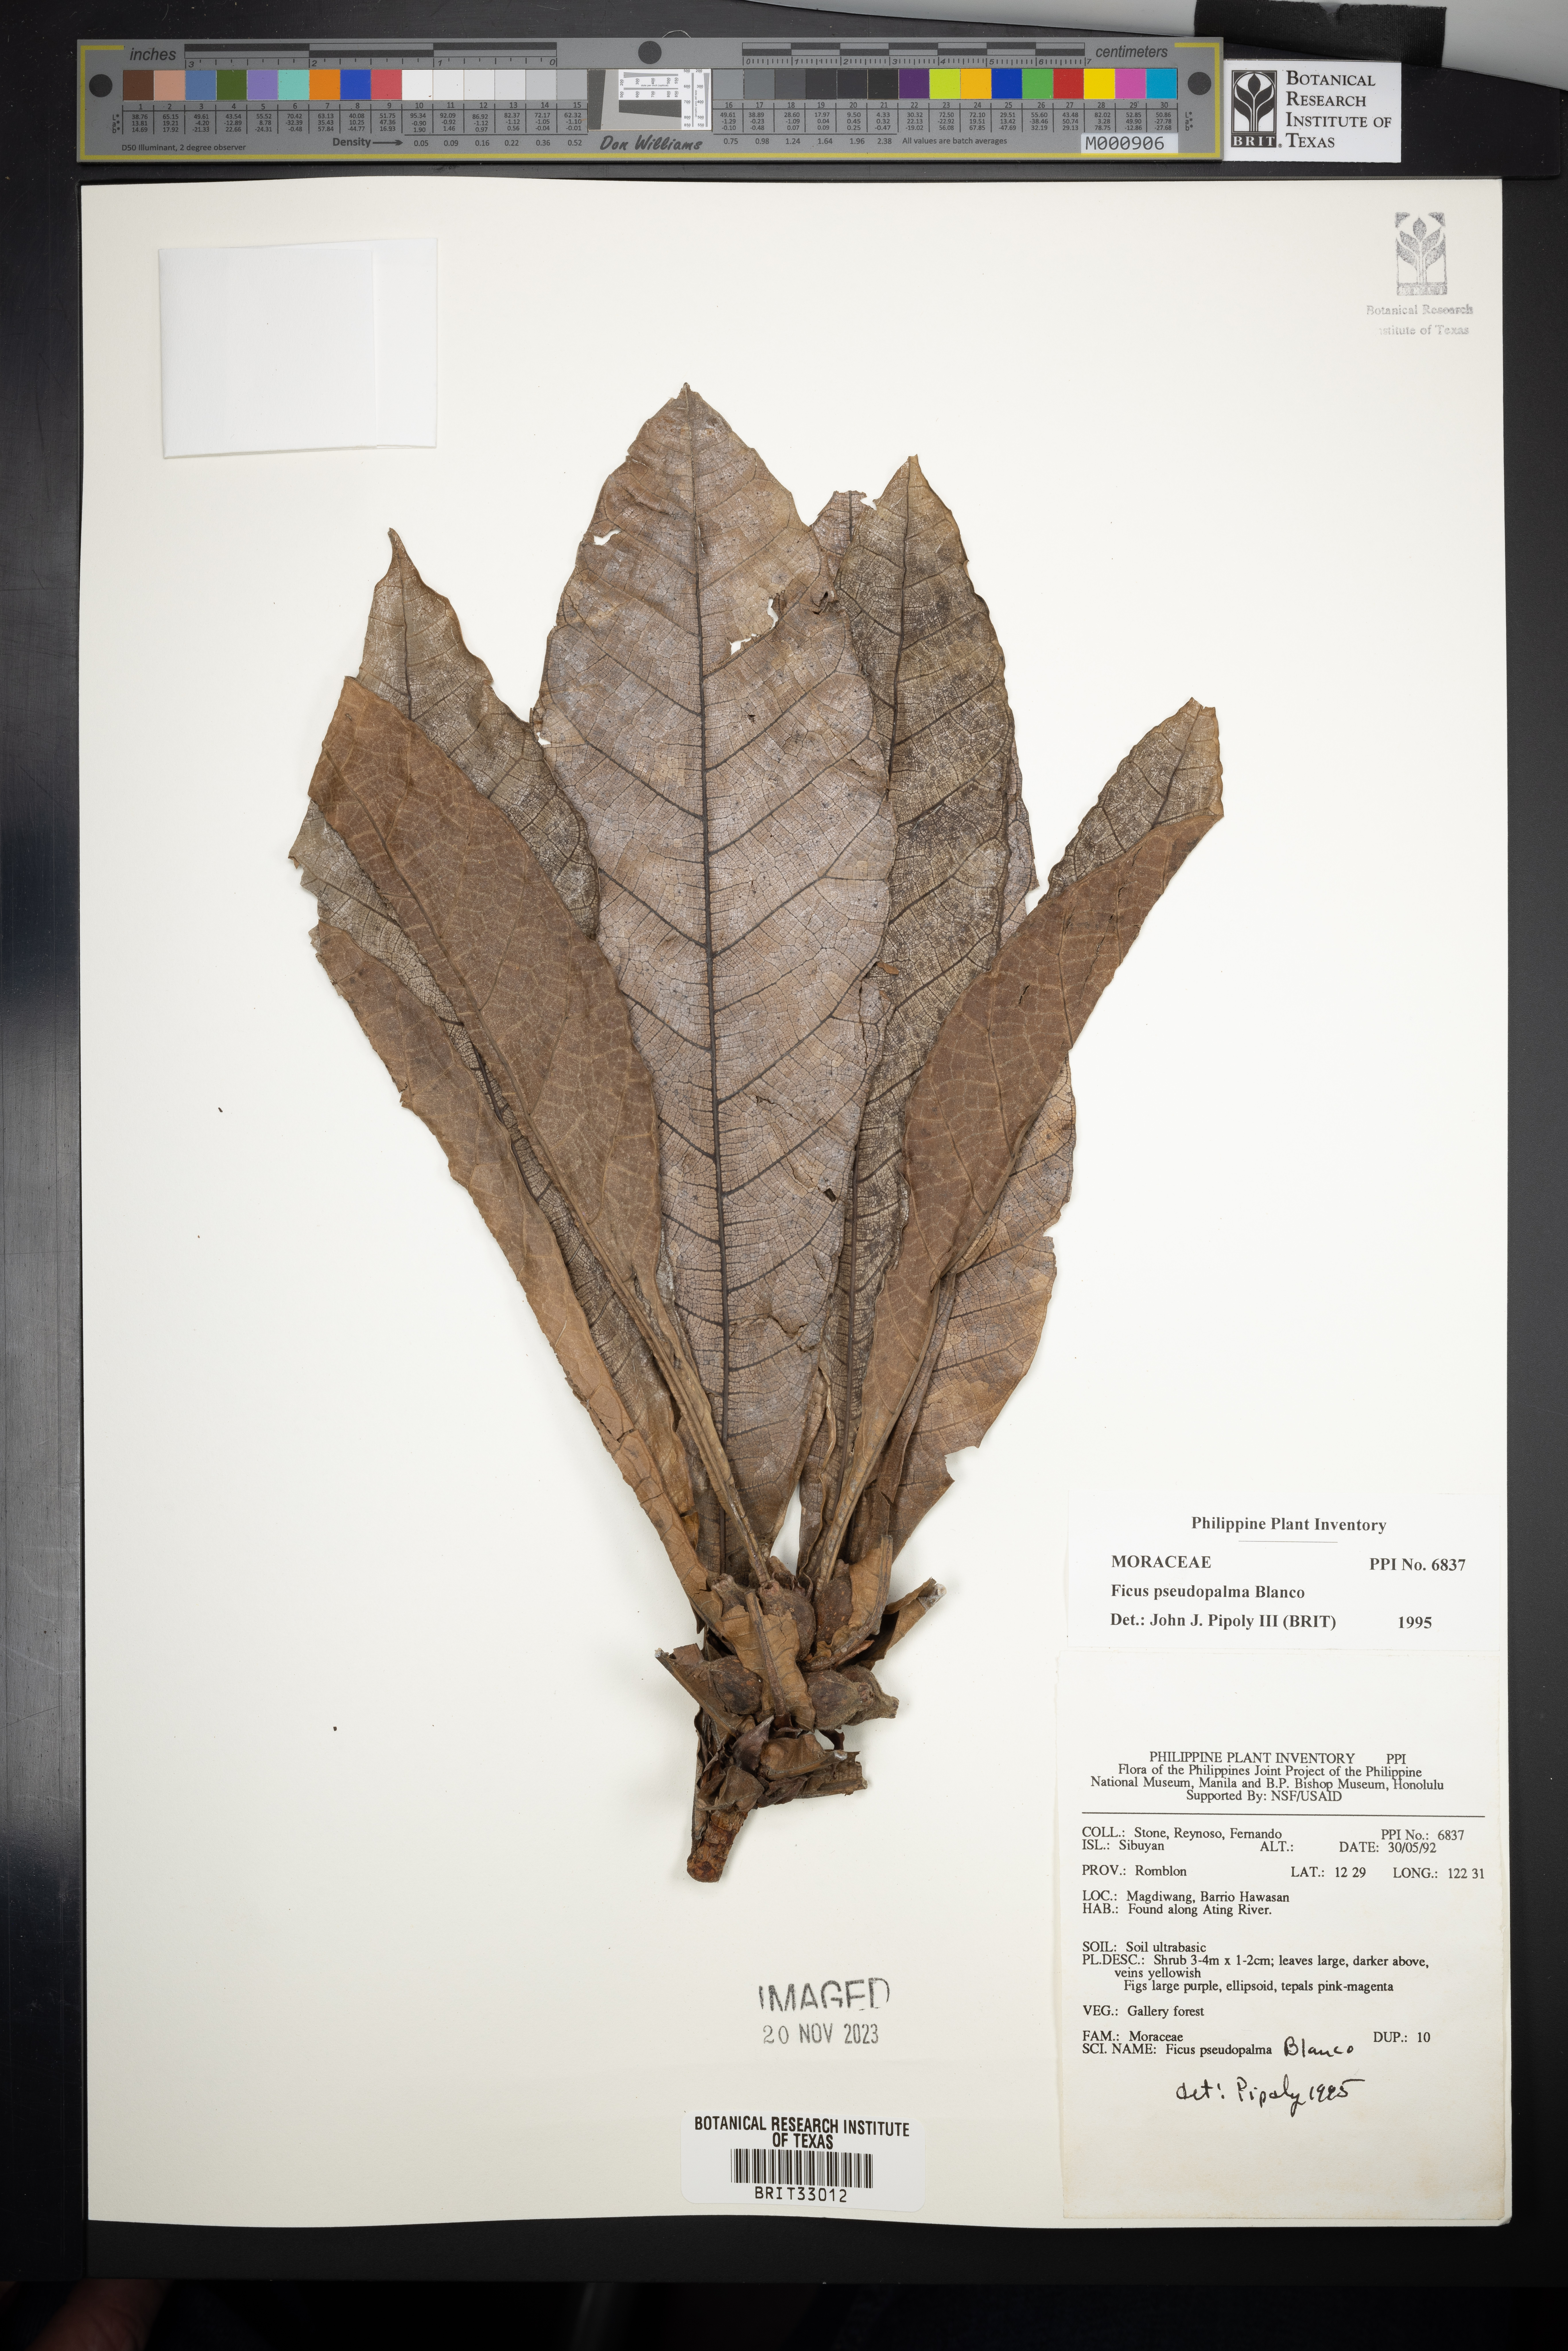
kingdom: Plantae
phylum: Tracheophyta
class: Magnoliopsida
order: Rosales
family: Moraceae
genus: Ficus
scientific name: Ficus pseudopalma
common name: Palm-like fig
